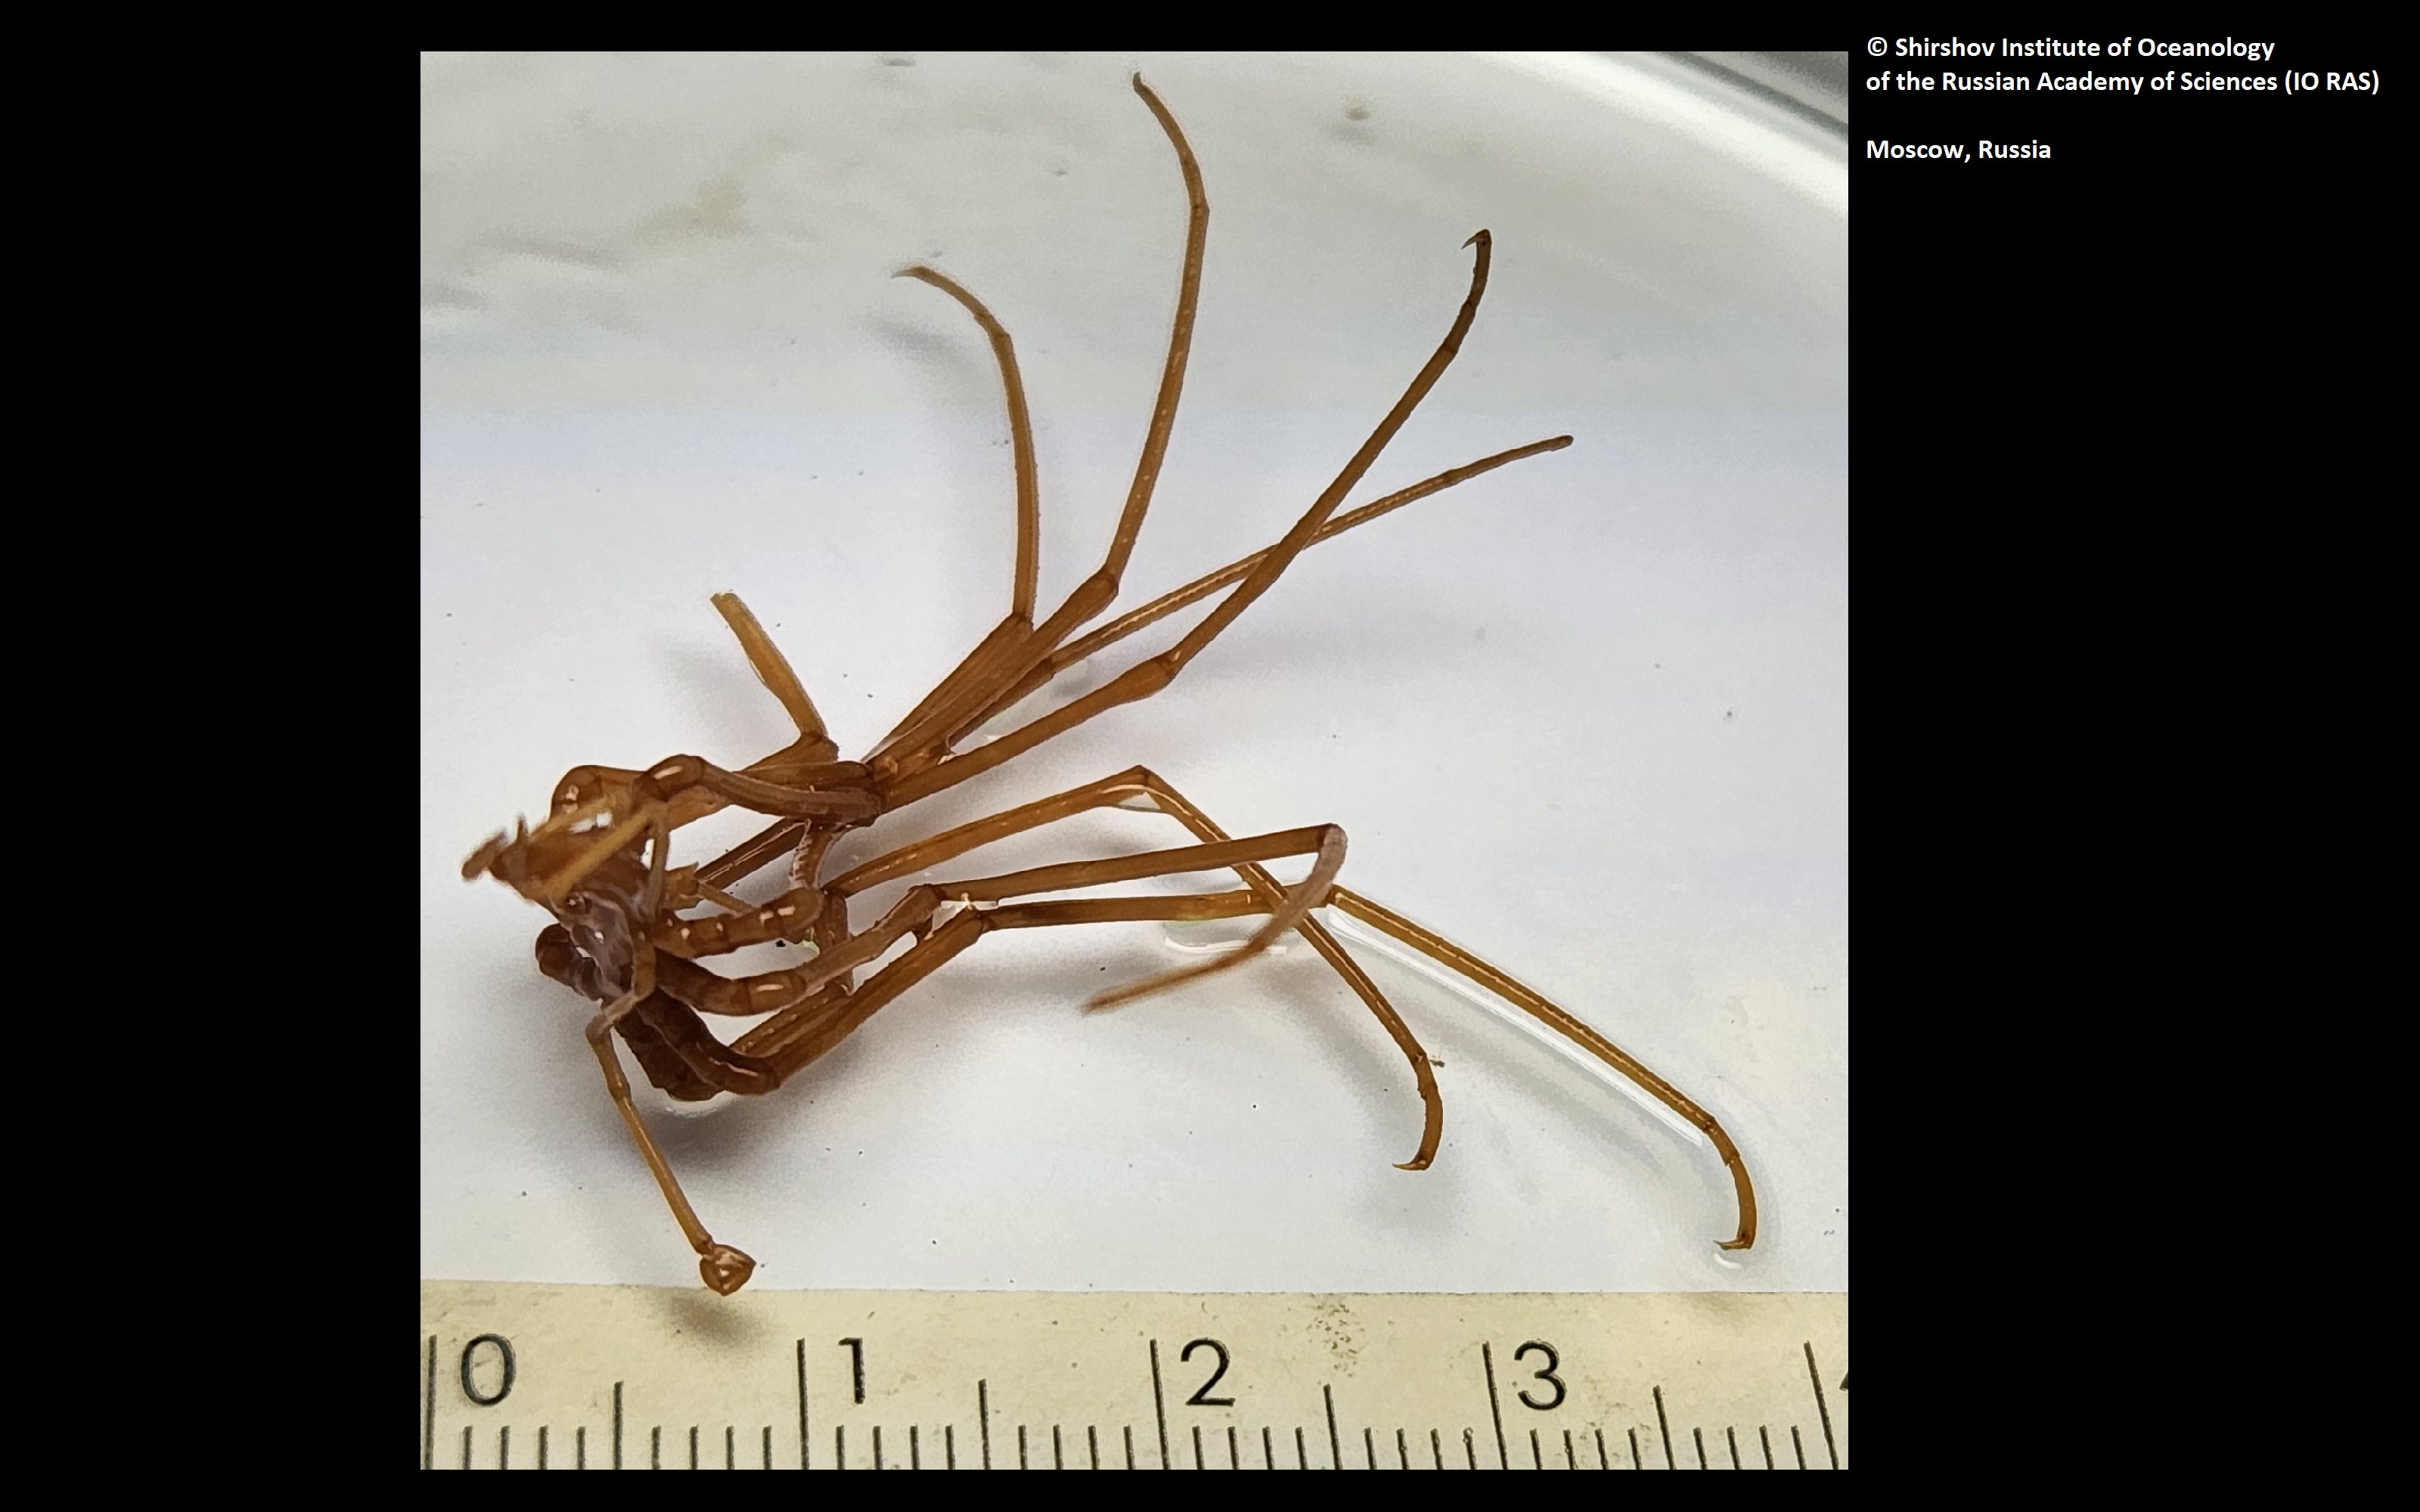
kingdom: Animalia
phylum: Arthropoda
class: Pycnogonida
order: Pantopoda
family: Colossendeidae
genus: Colossendeis
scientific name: Colossendeis vityazi
